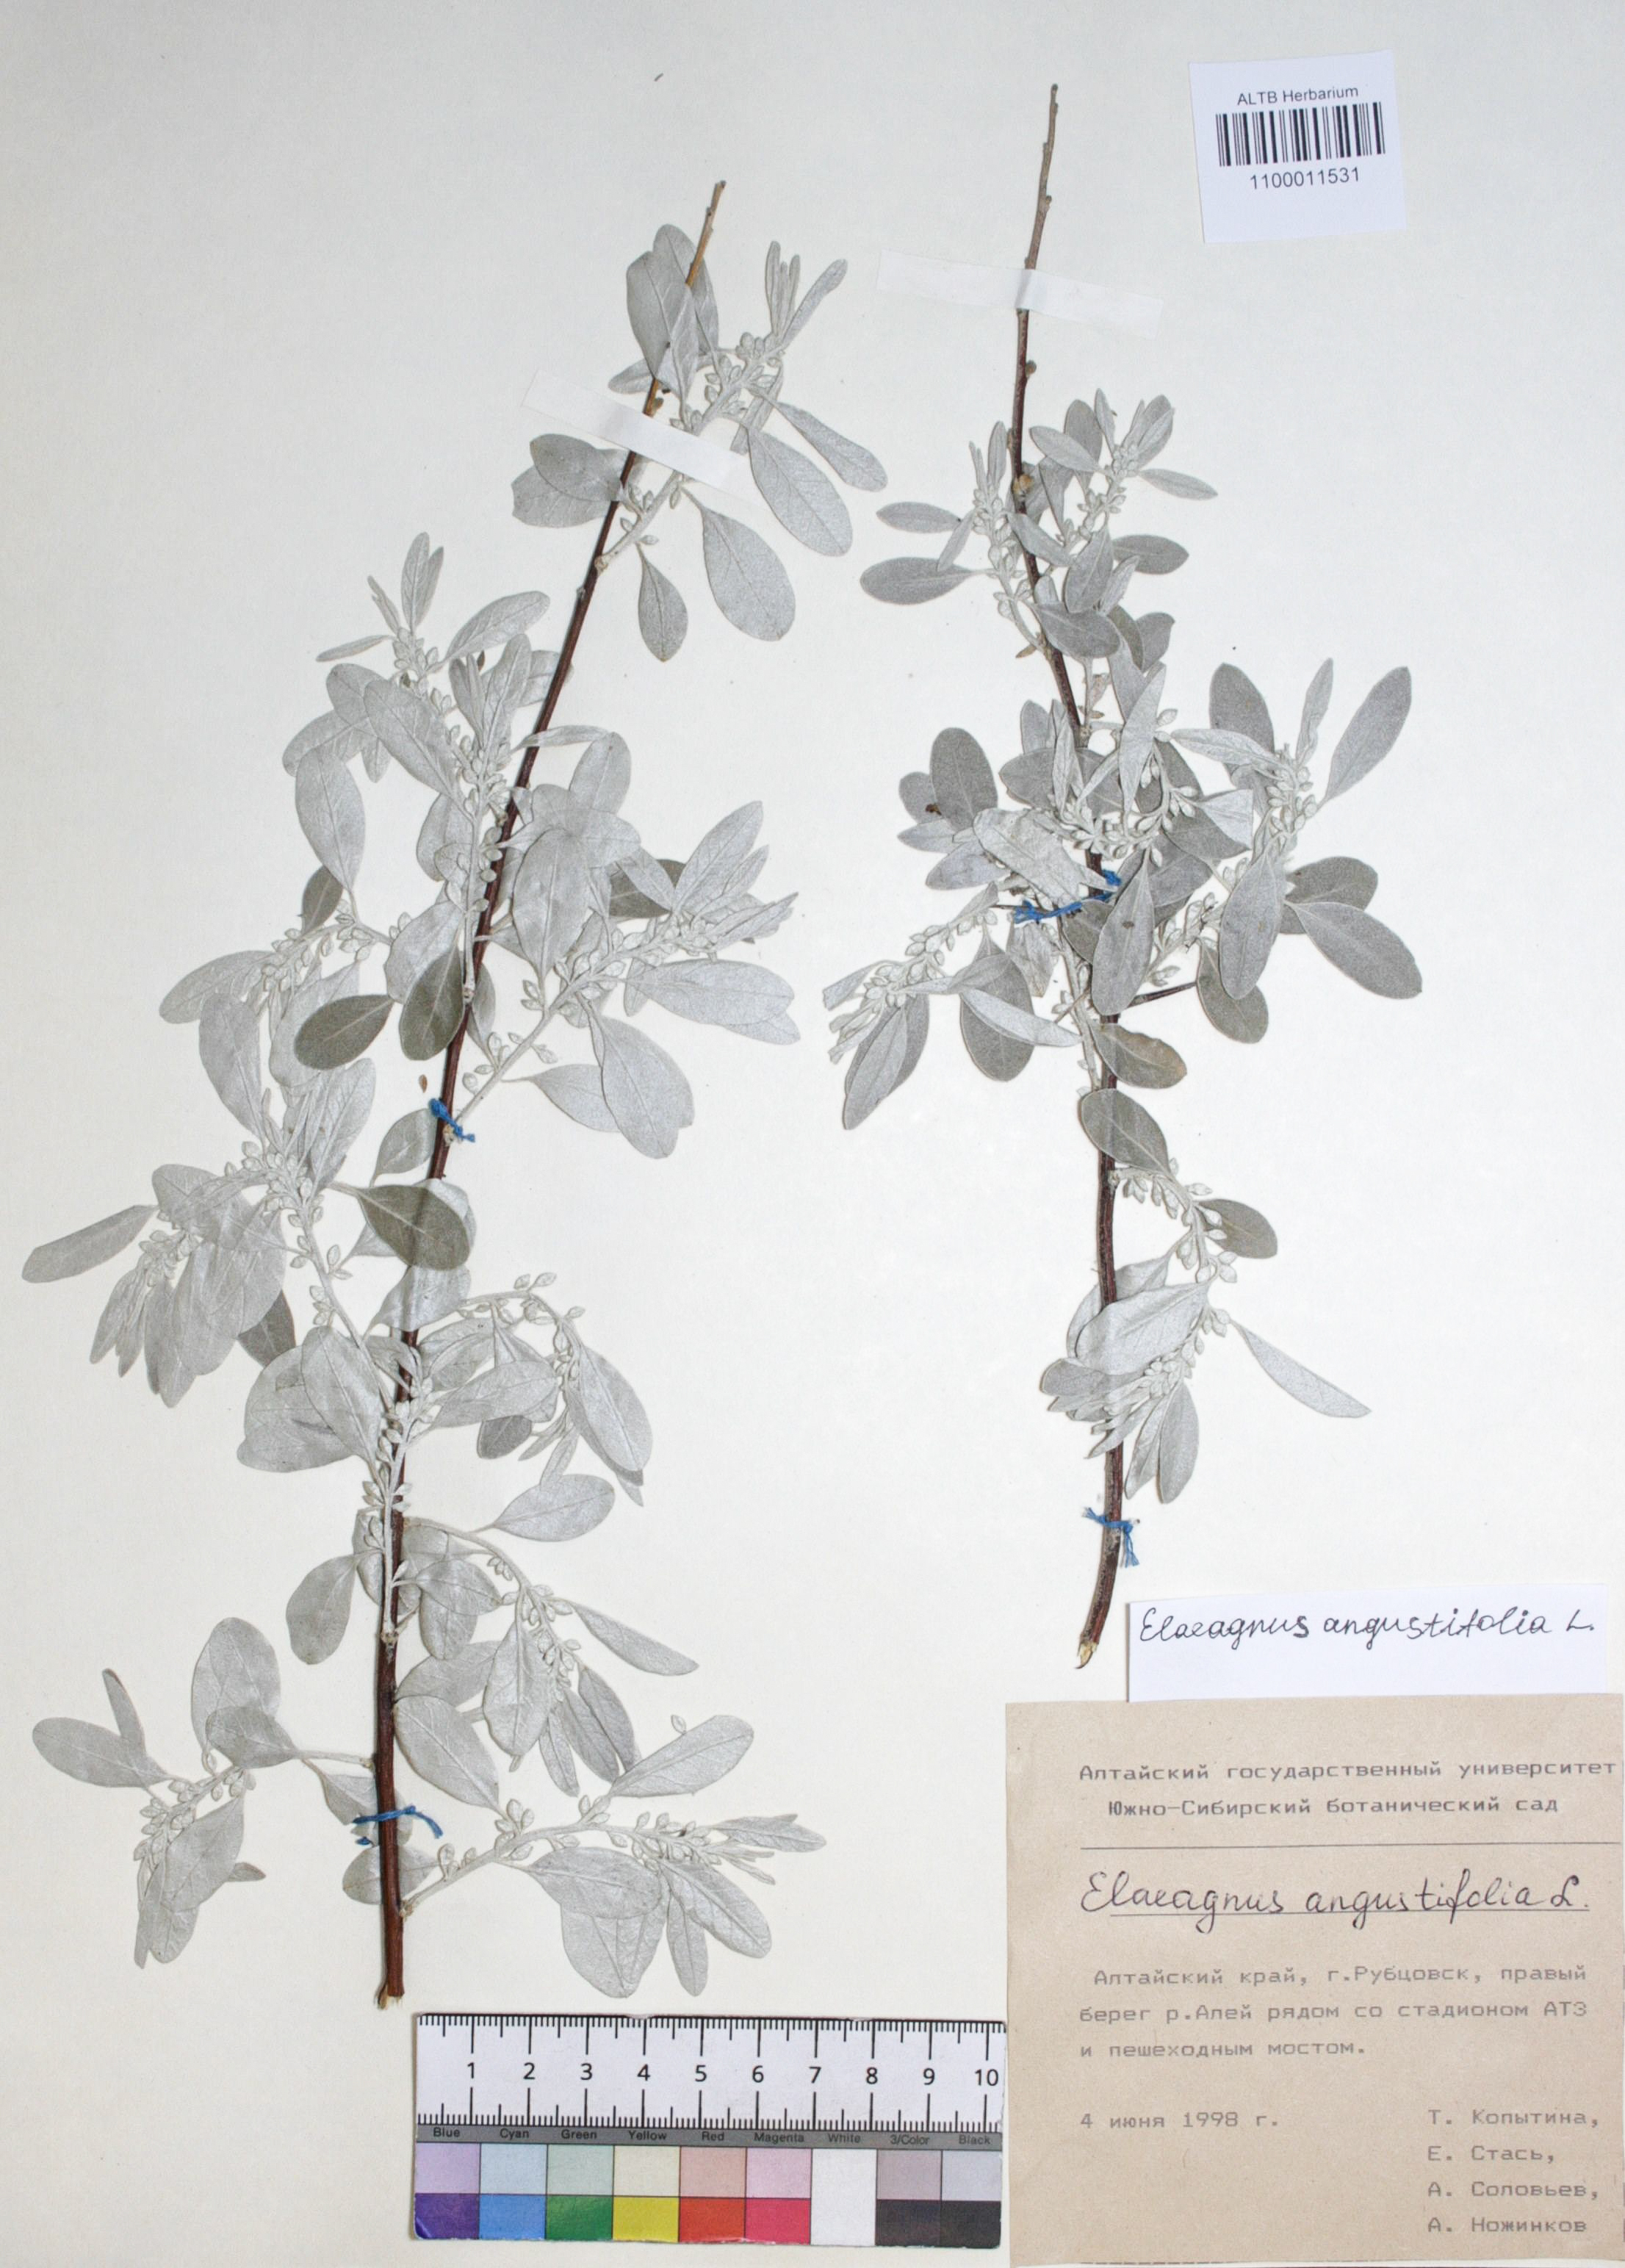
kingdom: Plantae
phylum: Tracheophyta
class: Magnoliopsida
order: Rosales
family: Elaeagnaceae
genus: Elaeagnus
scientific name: Elaeagnus angustifolia
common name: Russian olive
